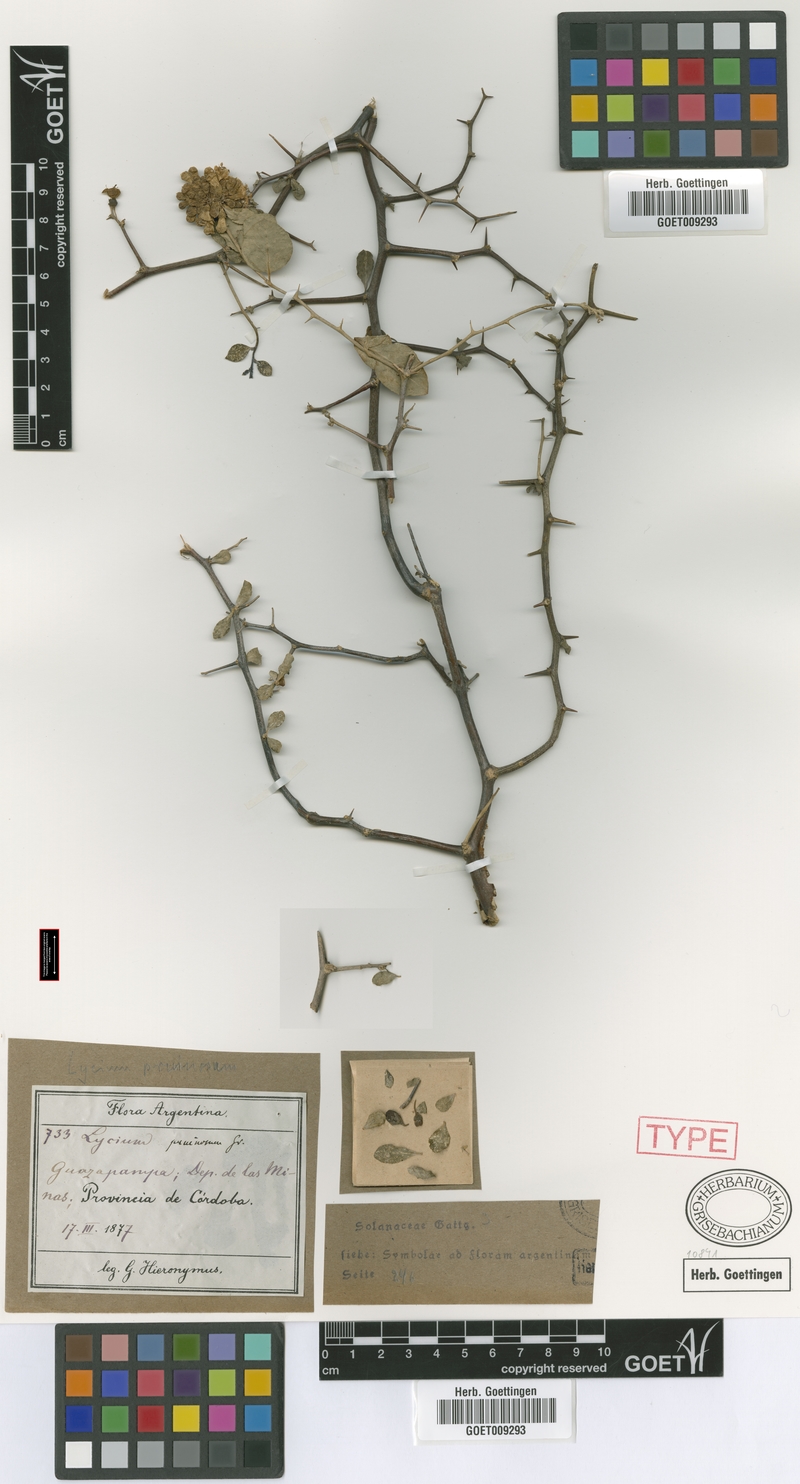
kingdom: Plantae
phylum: Tracheophyta
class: Magnoliopsida
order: Solanales
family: Solanaceae
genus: Lycium
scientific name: Lycium americanum
